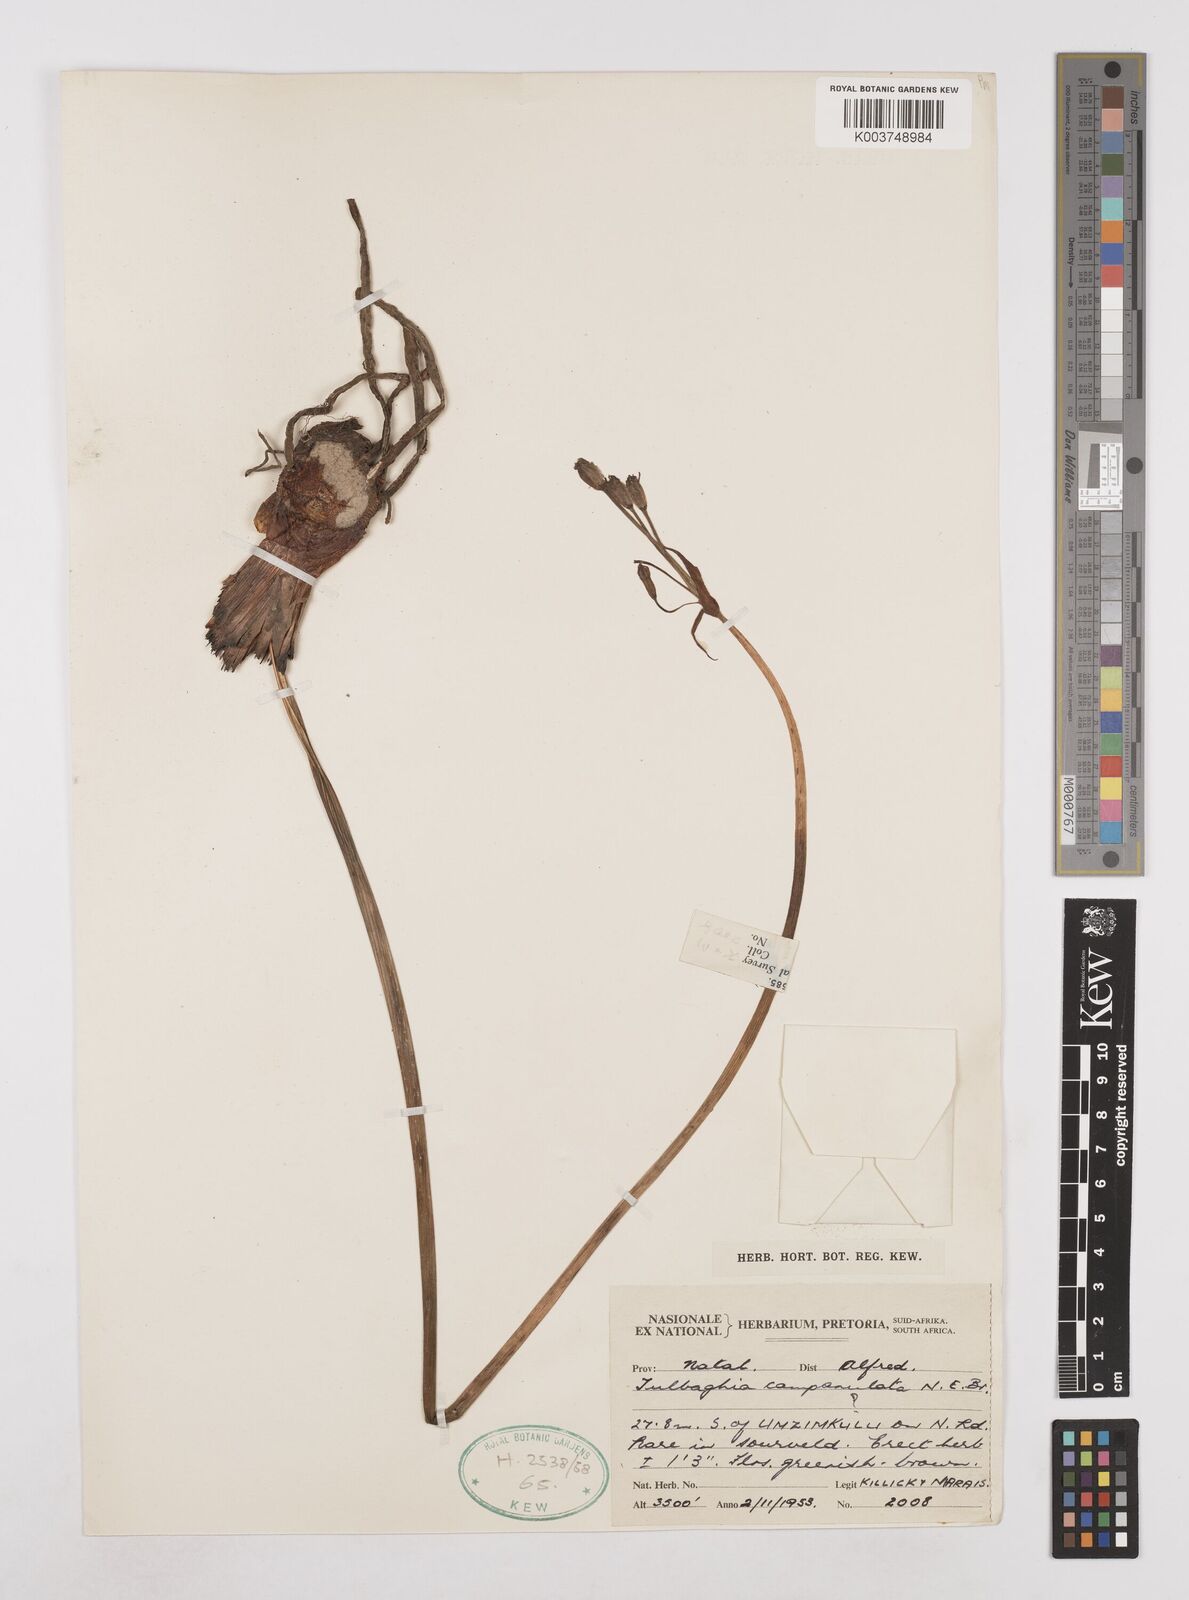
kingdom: Plantae
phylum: Tracheophyta
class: Liliopsida
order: Asparagales
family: Amaryllidaceae
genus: Tulbaghia
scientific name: Tulbaghia cernua
